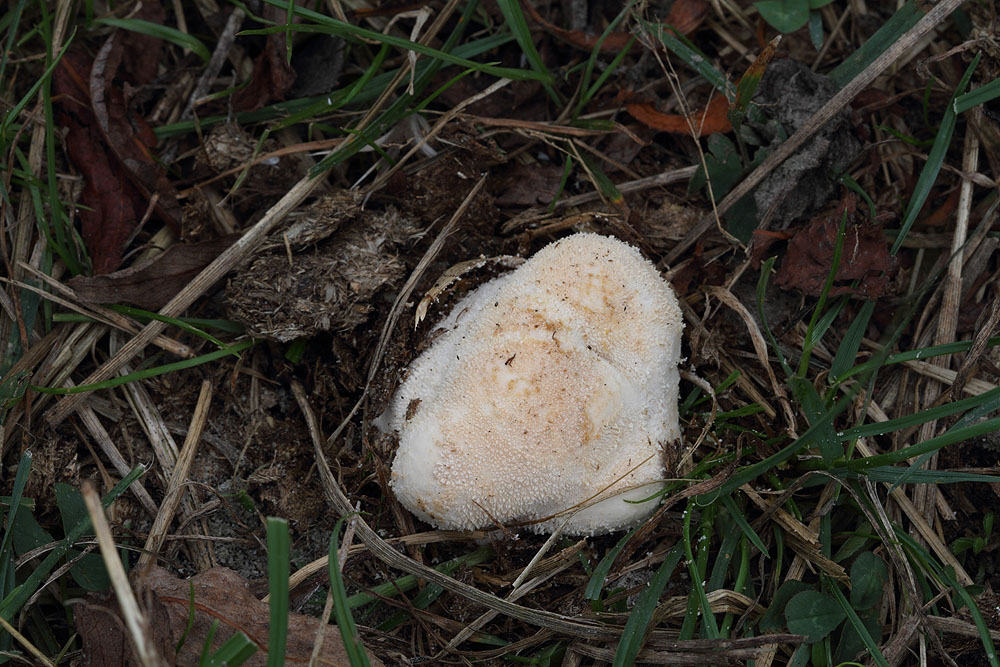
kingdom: Fungi
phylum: Basidiomycota
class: Agaricomycetes
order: Agaricales
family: Lycoperdaceae
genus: Lycoperdon
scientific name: Lycoperdon pratense
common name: flad støvbold
